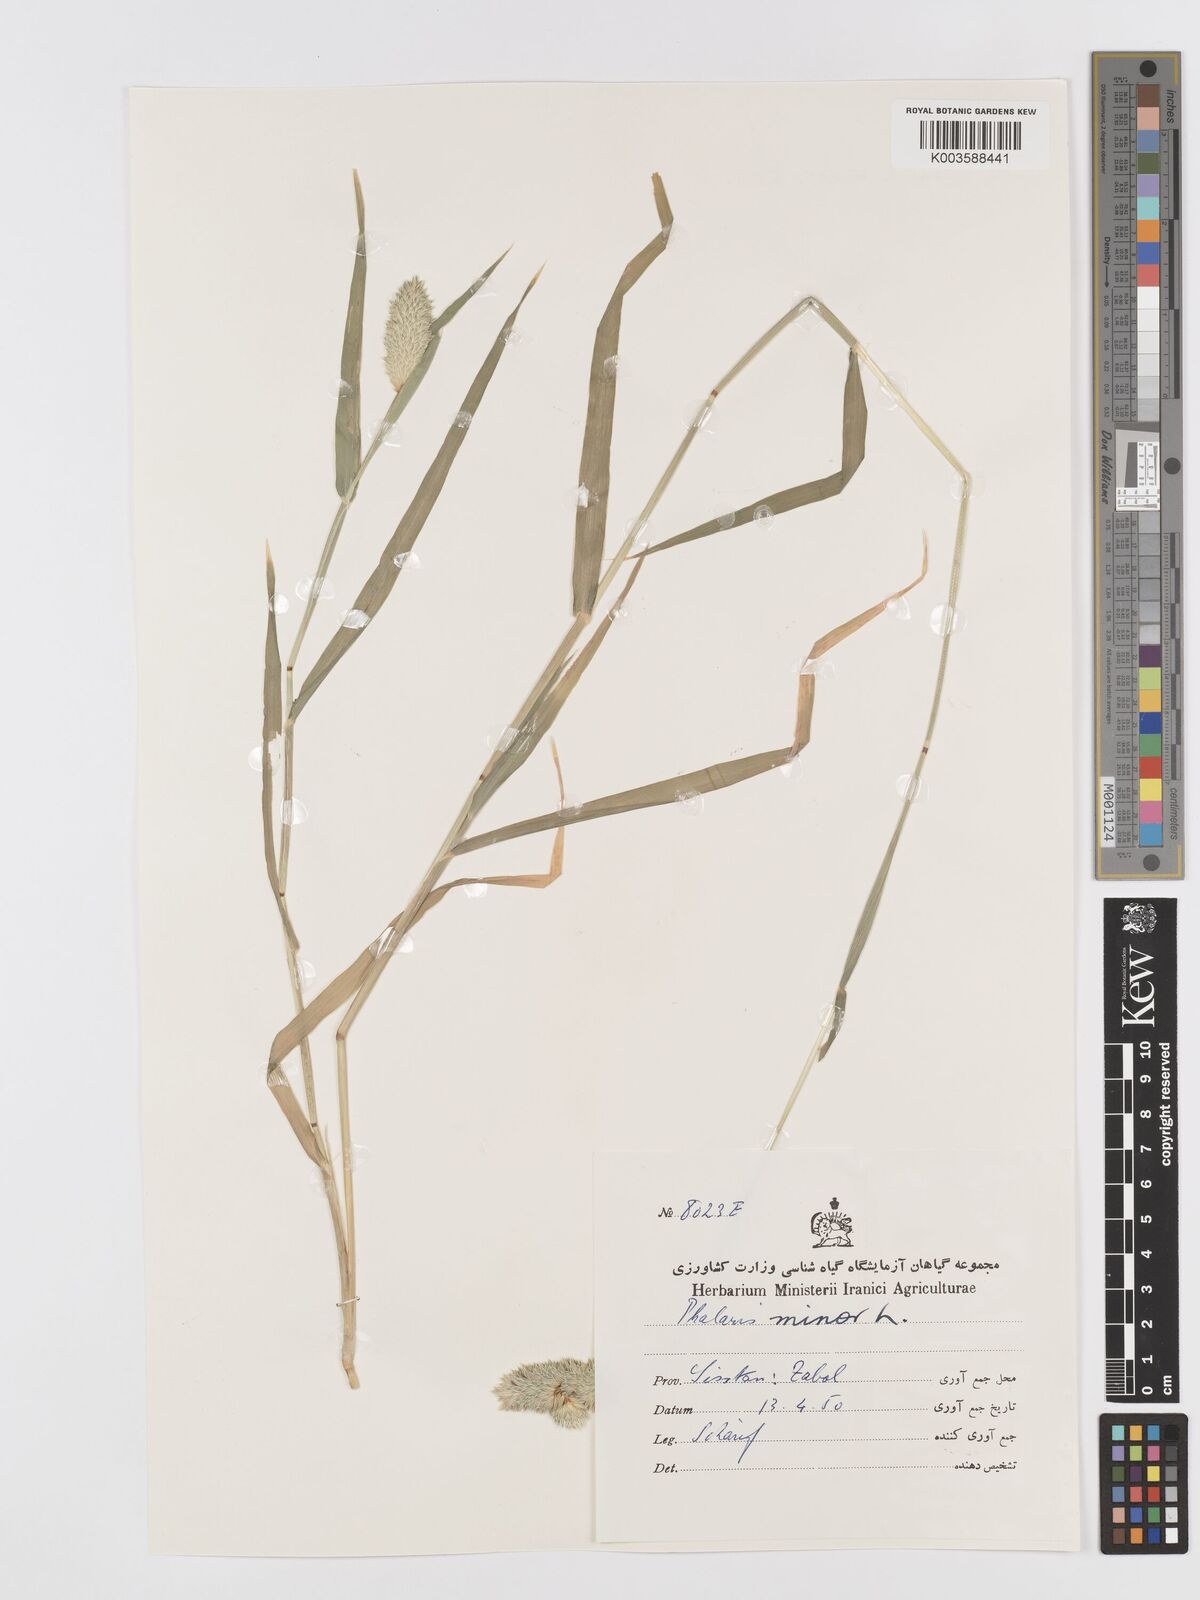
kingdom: Plantae
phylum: Tracheophyta
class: Liliopsida
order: Poales
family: Poaceae
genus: Phalaris
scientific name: Phalaris minor
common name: Littleseed canarygrass
